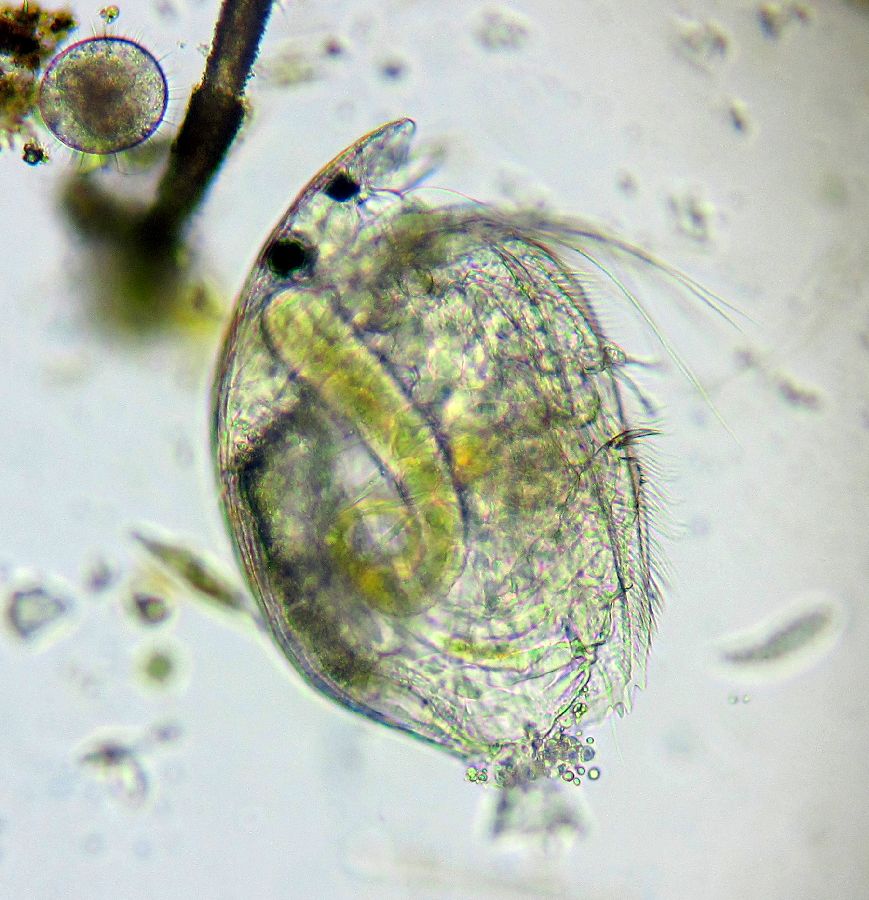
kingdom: Animalia
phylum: Arthropoda
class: Branchiopoda
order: Diplostraca
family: Chydoridae
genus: Phreatalona
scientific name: Phreatalona protzi
